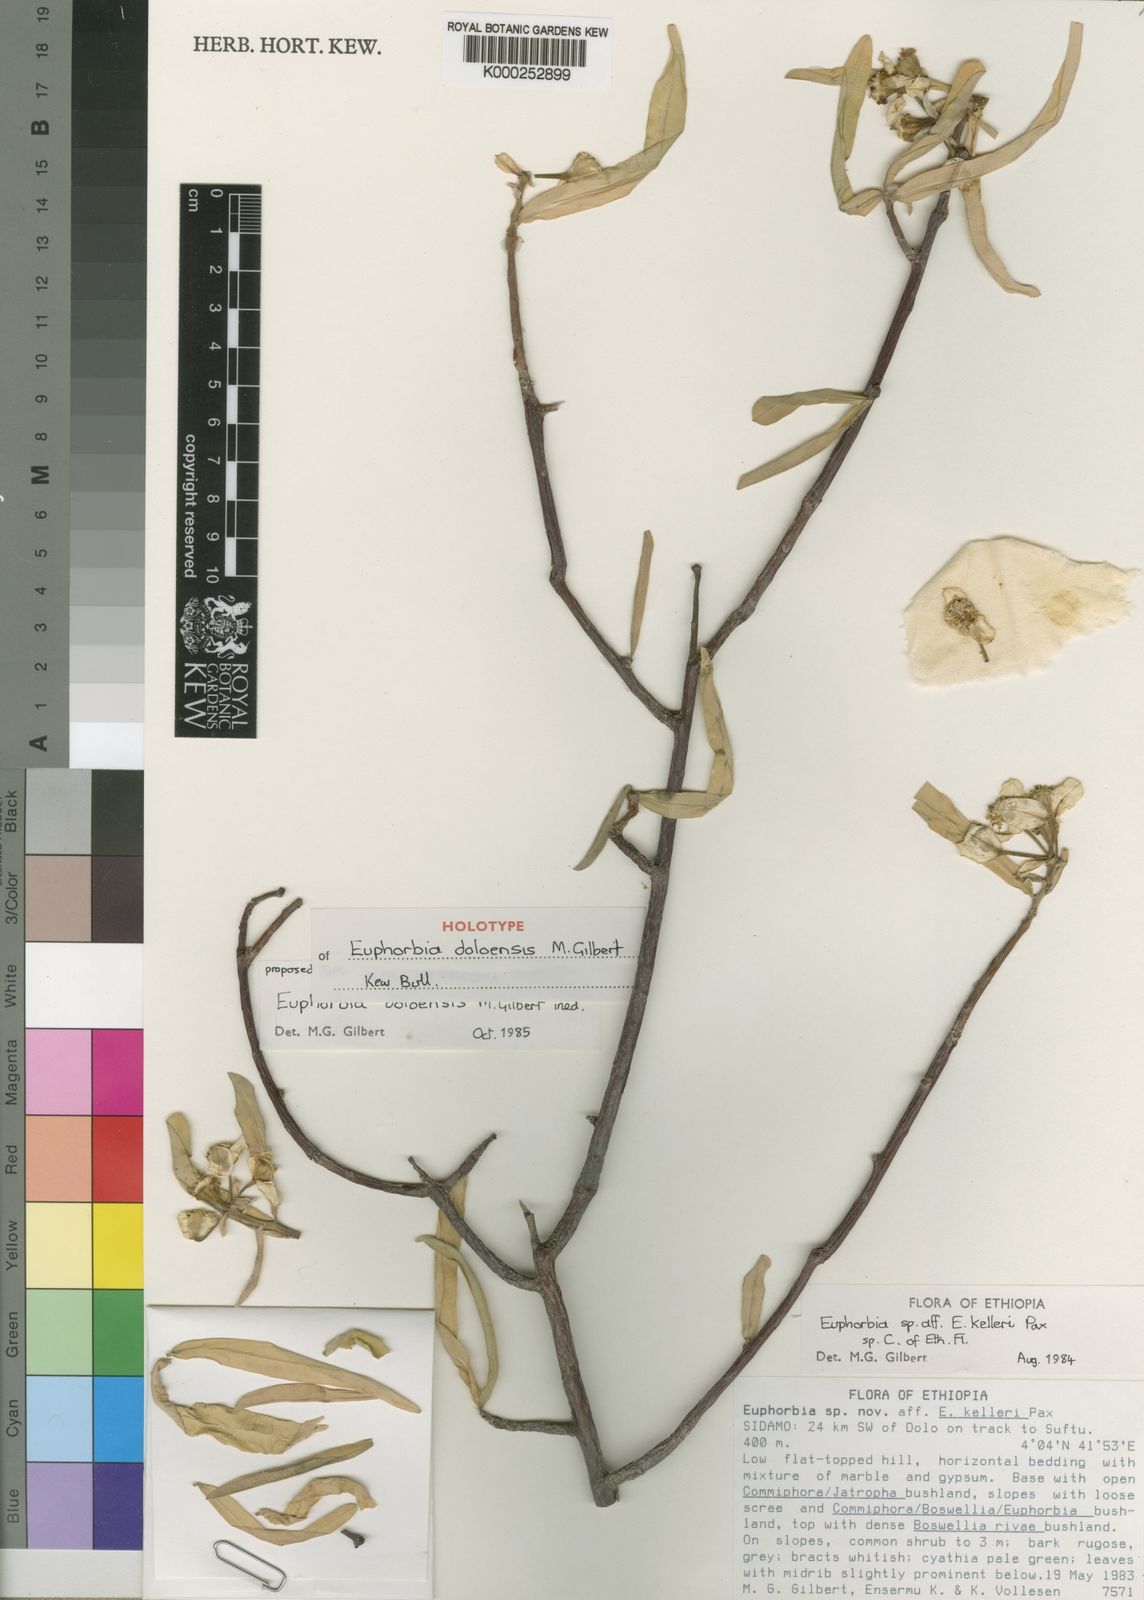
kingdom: Plantae
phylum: Tracheophyta
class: Magnoliopsida
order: Malpighiales
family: Euphorbiaceae
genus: Euphorbia
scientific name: Euphorbia doloensis
